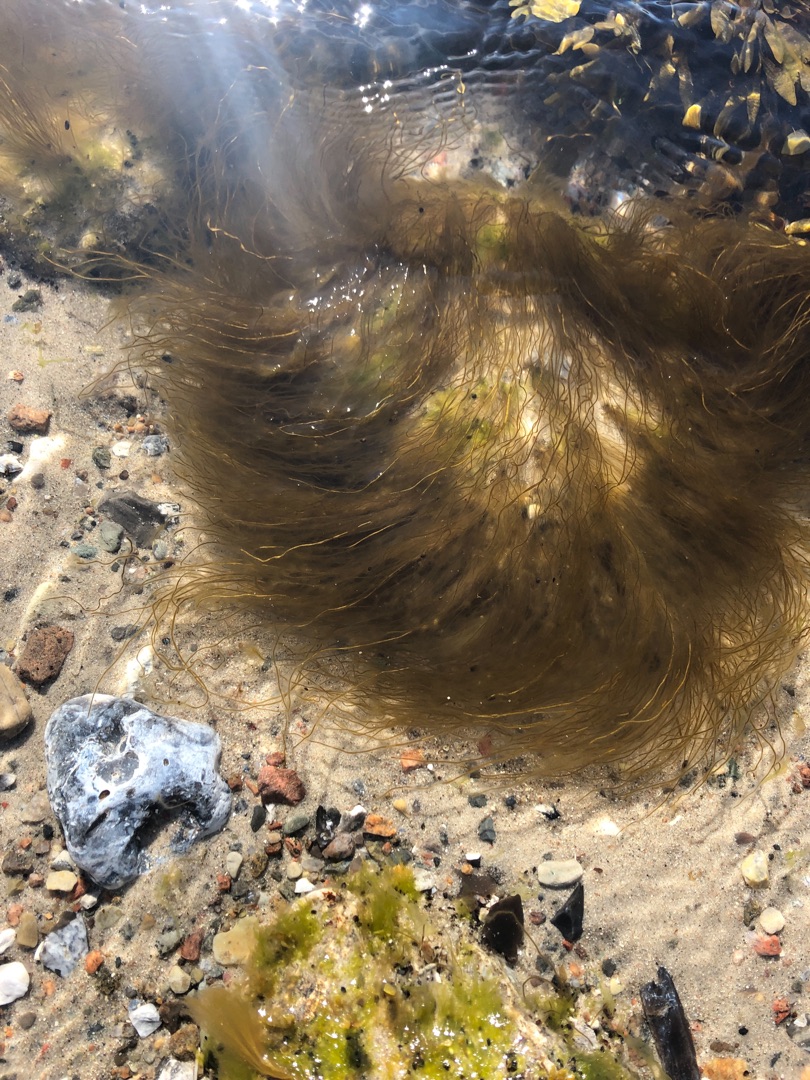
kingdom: Chromista
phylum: Ochrophyta
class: Phaeophyceae
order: Scytosiphonales
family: Scytosiphonaceae
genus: Scytosiphon
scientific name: Scytosiphon lomentaria
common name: Pølsetang
